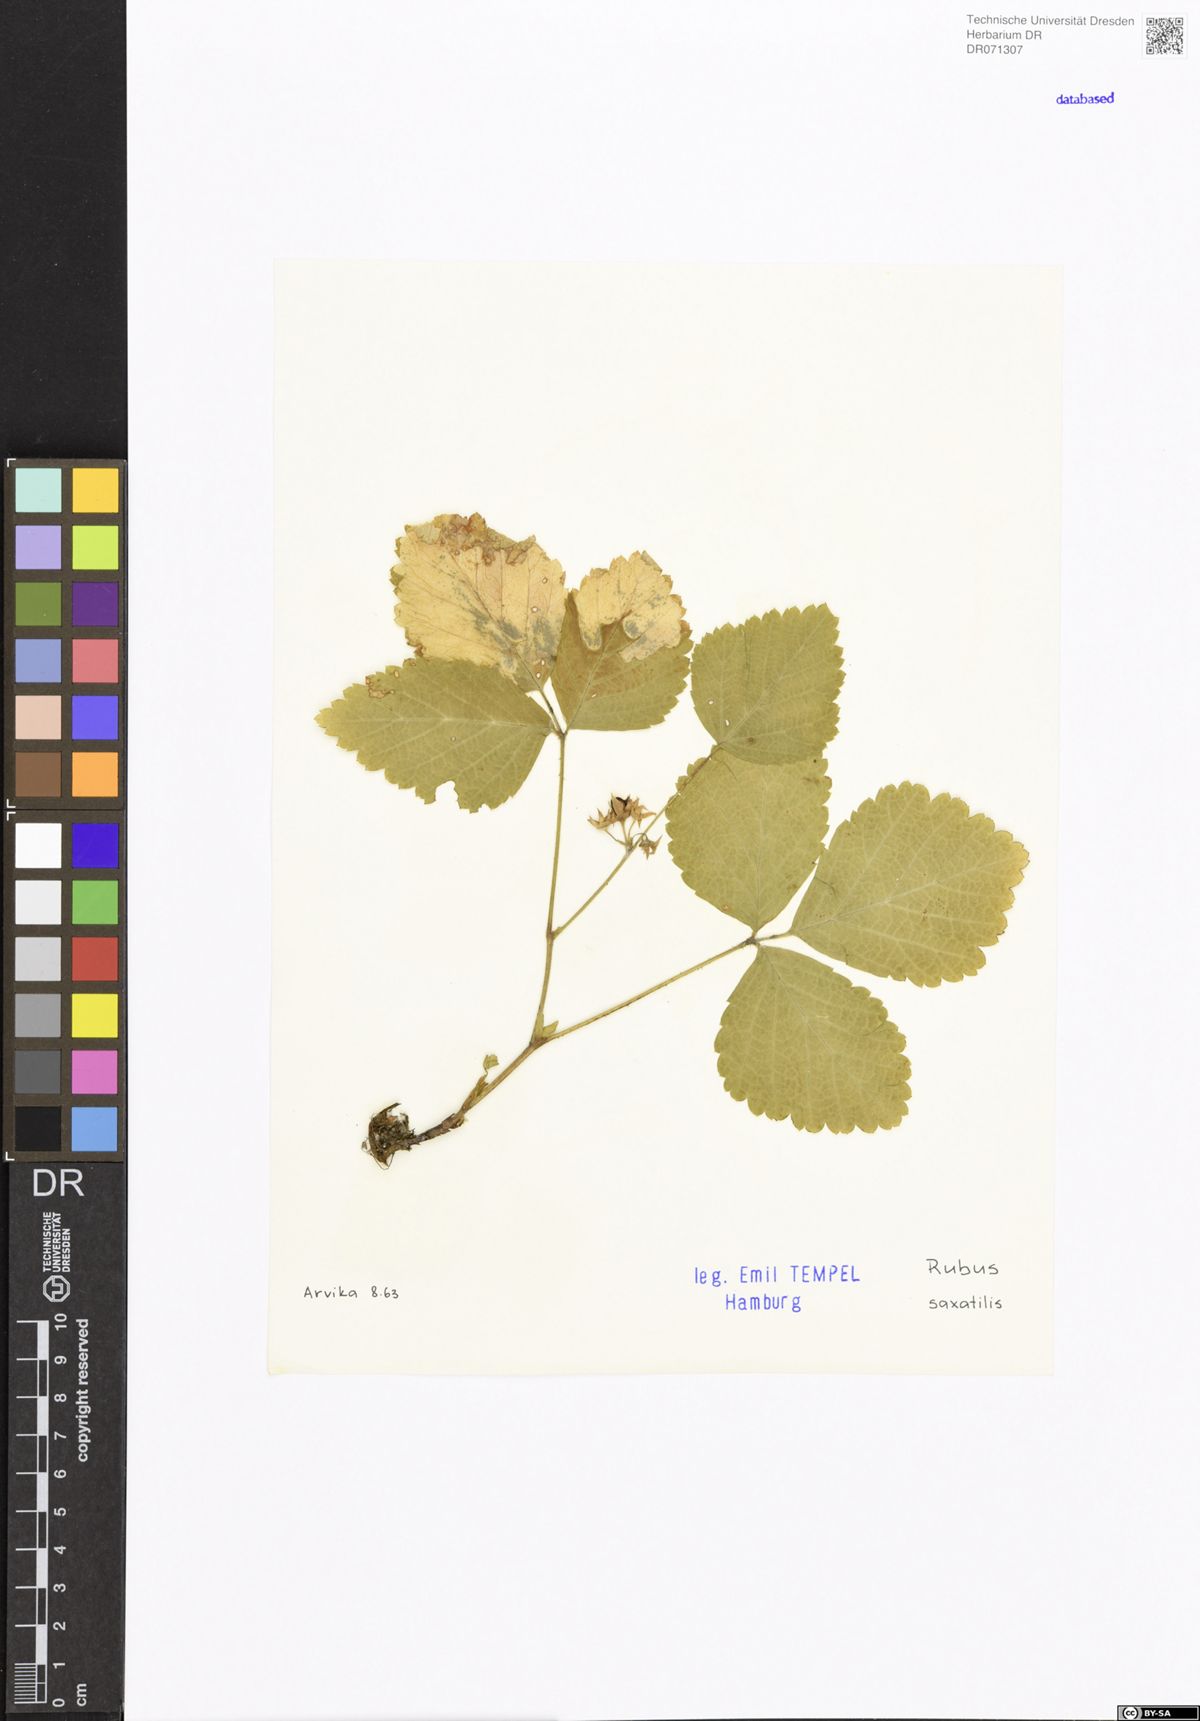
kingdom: Plantae
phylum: Tracheophyta
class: Magnoliopsida
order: Rosales
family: Rosaceae
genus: Rubus
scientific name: Rubus saxatilis
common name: Stone bramble
